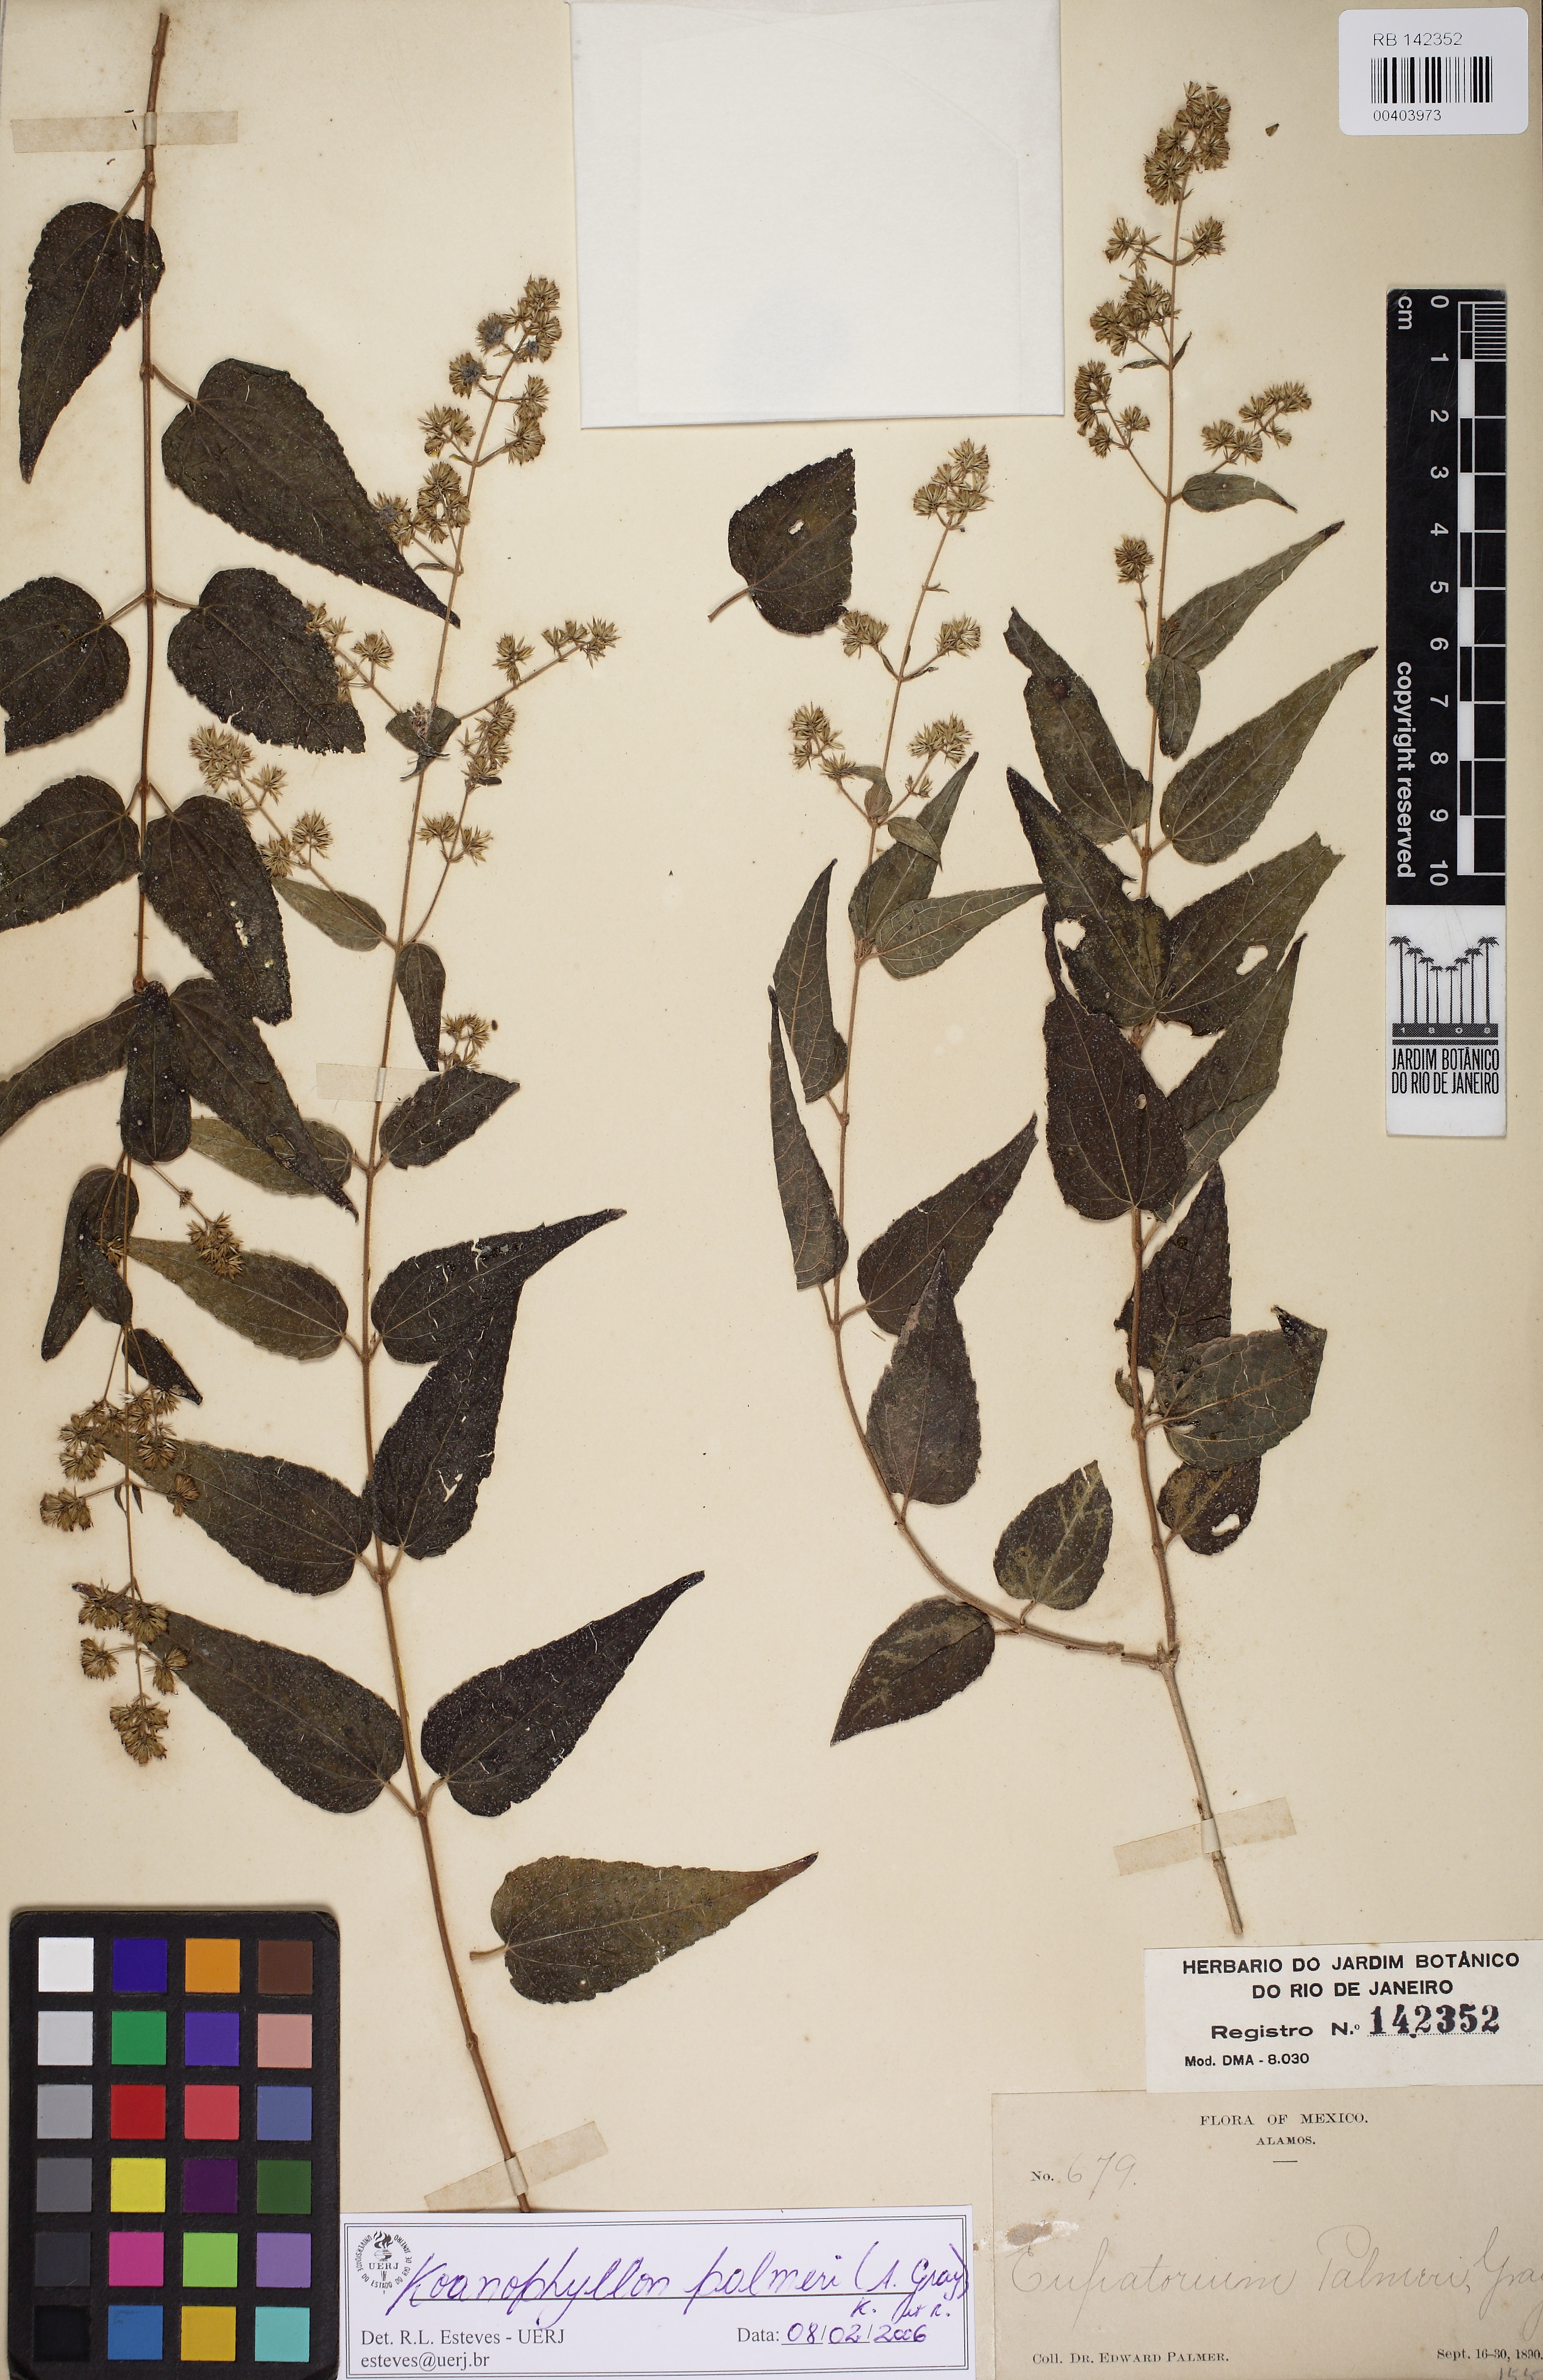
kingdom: Plantae
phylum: Tracheophyta
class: Magnoliopsida
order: Asterales
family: Asteraceae
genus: Koanophyllon
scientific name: Koanophyllon palmeri
